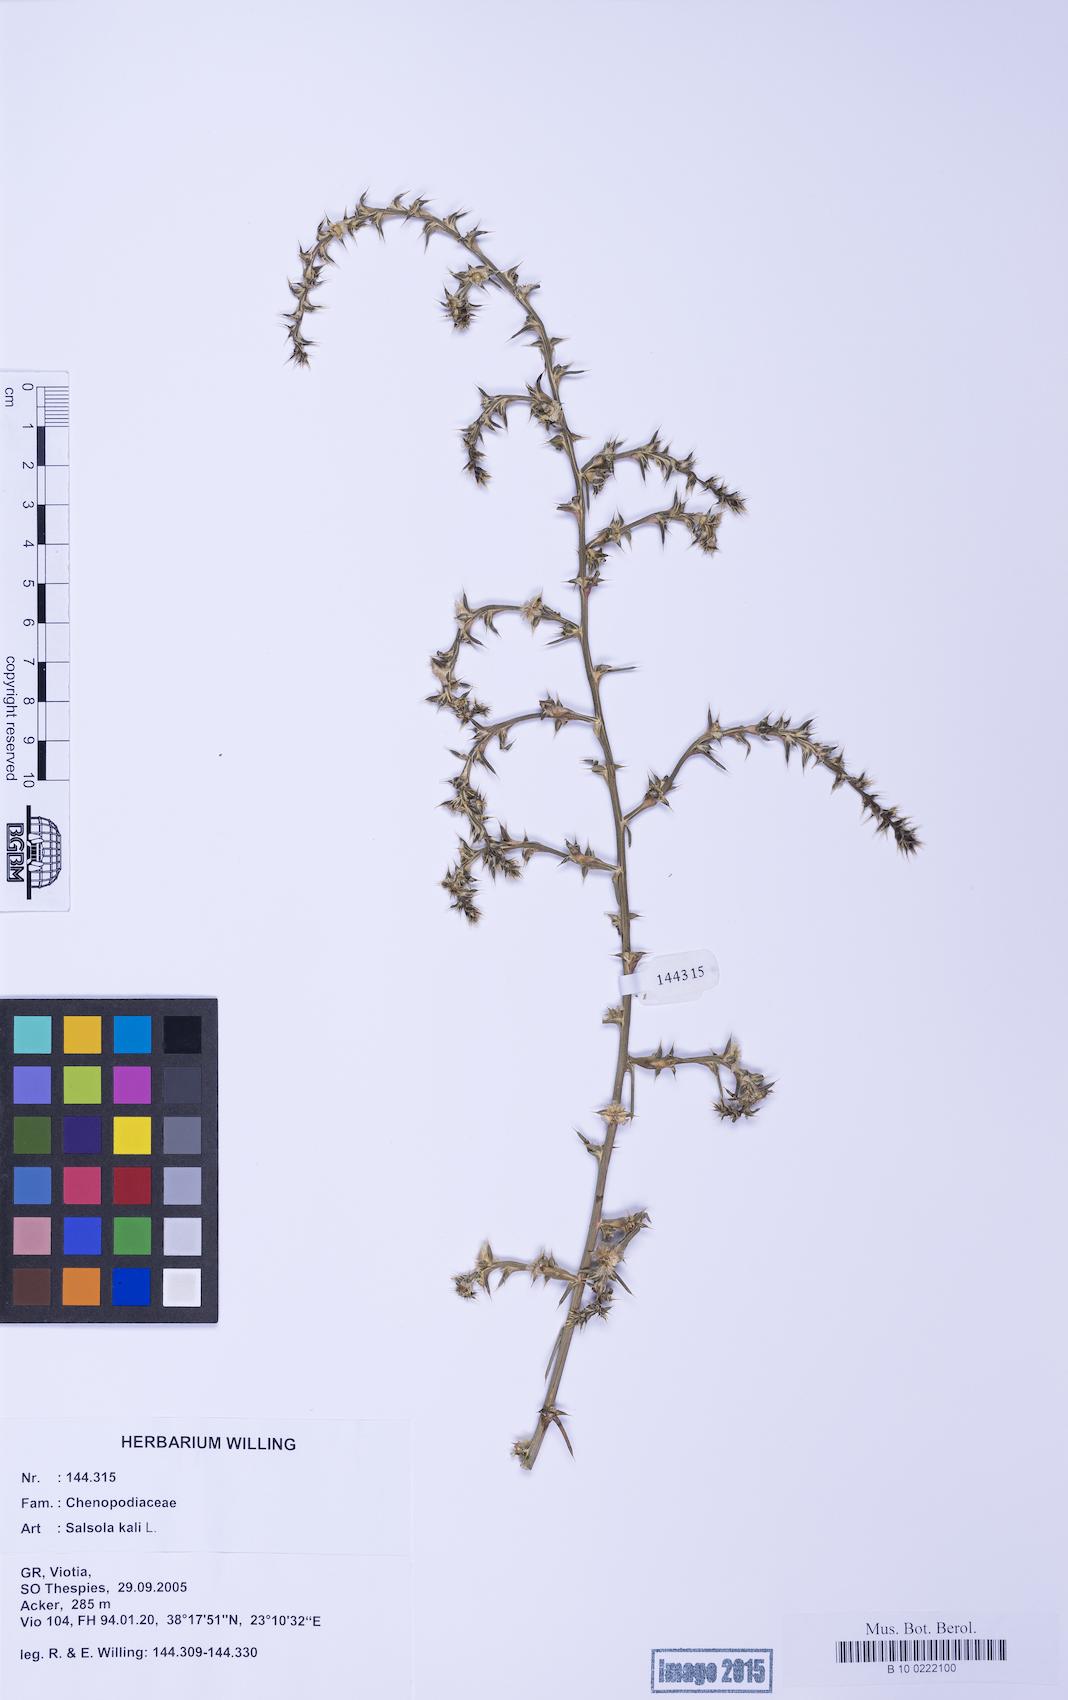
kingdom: Plantae
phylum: Tracheophyta
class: Magnoliopsida
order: Caryophyllales
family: Amaranthaceae
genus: Salsola
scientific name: Salsola kali
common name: Saltwort
